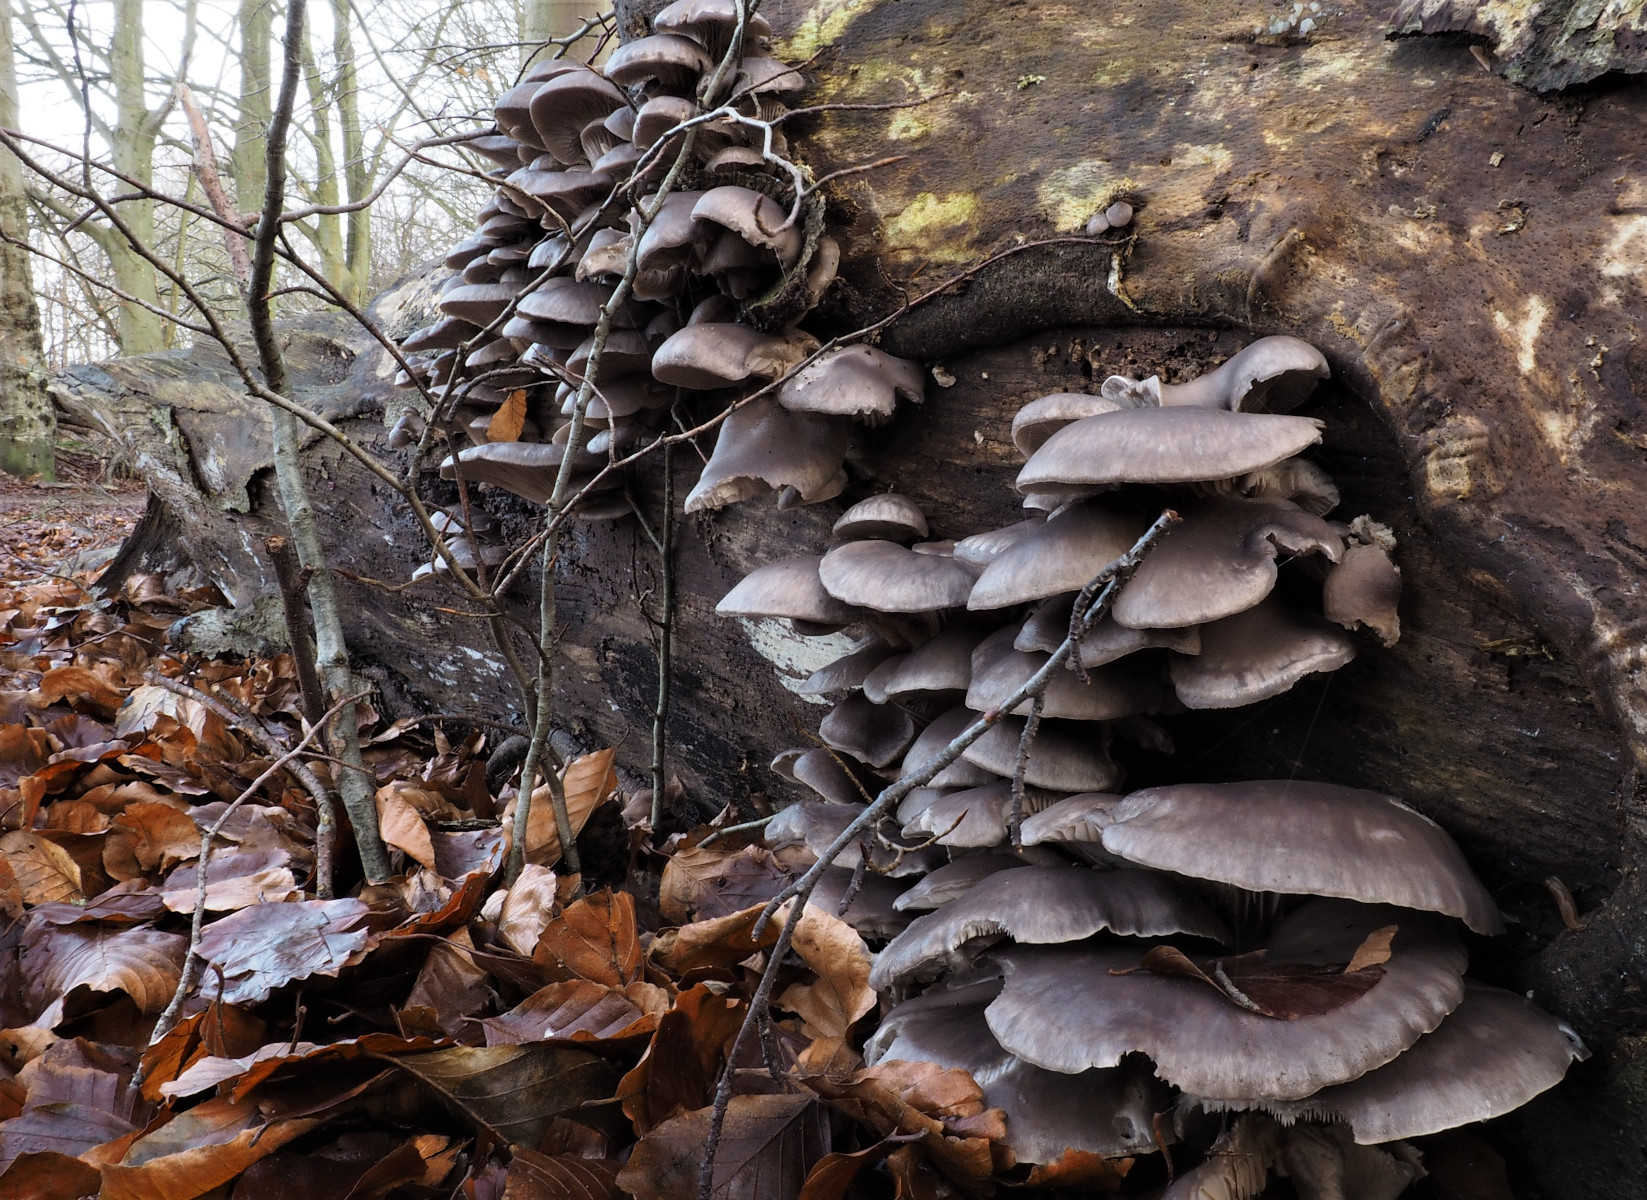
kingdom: Fungi
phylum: Basidiomycota
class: Agaricomycetes
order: Agaricales
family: Pleurotaceae
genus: Pleurotus
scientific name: Pleurotus ostreatus
